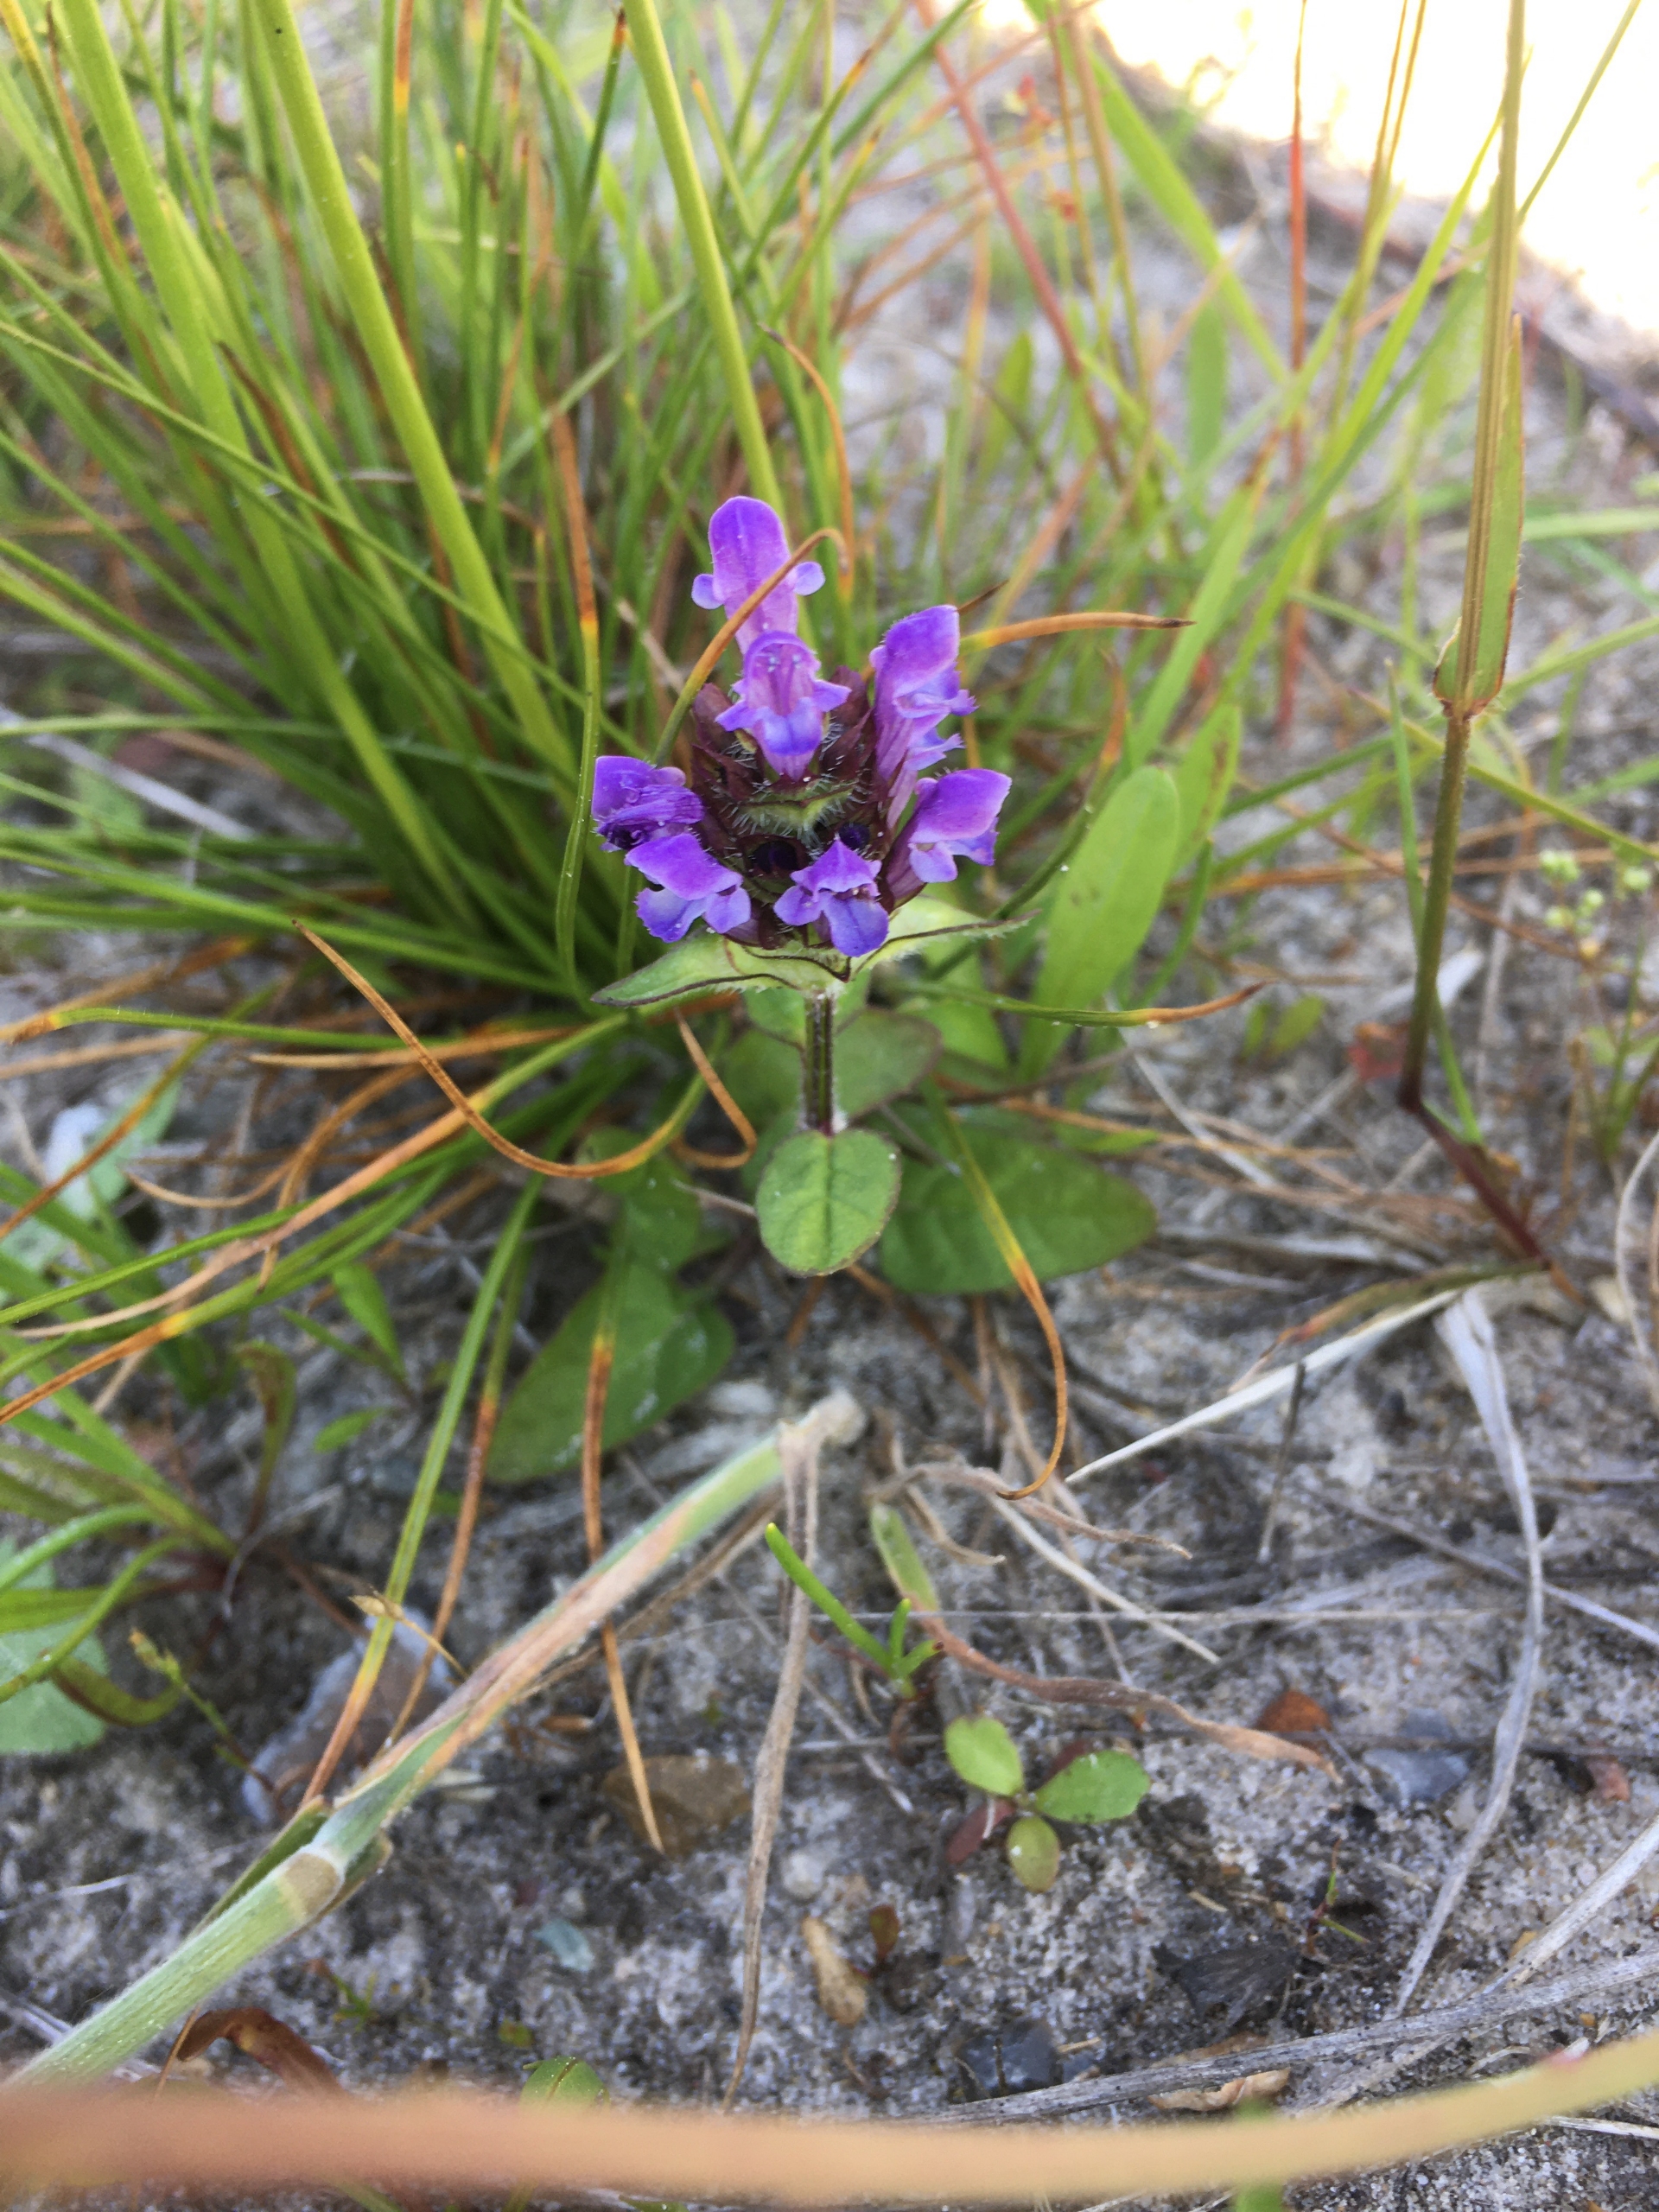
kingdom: Plantae
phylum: Tracheophyta
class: Magnoliopsida
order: Lamiales
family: Lamiaceae
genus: Prunella
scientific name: Prunella vulgaris
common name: Almindelig brunelle
